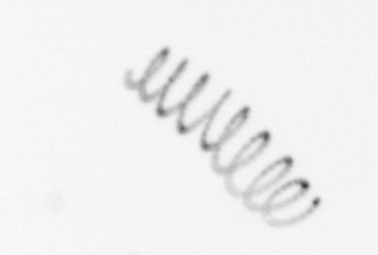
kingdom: Chromista
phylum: Ochrophyta
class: Bacillariophyceae
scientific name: Bacillariophyceae
